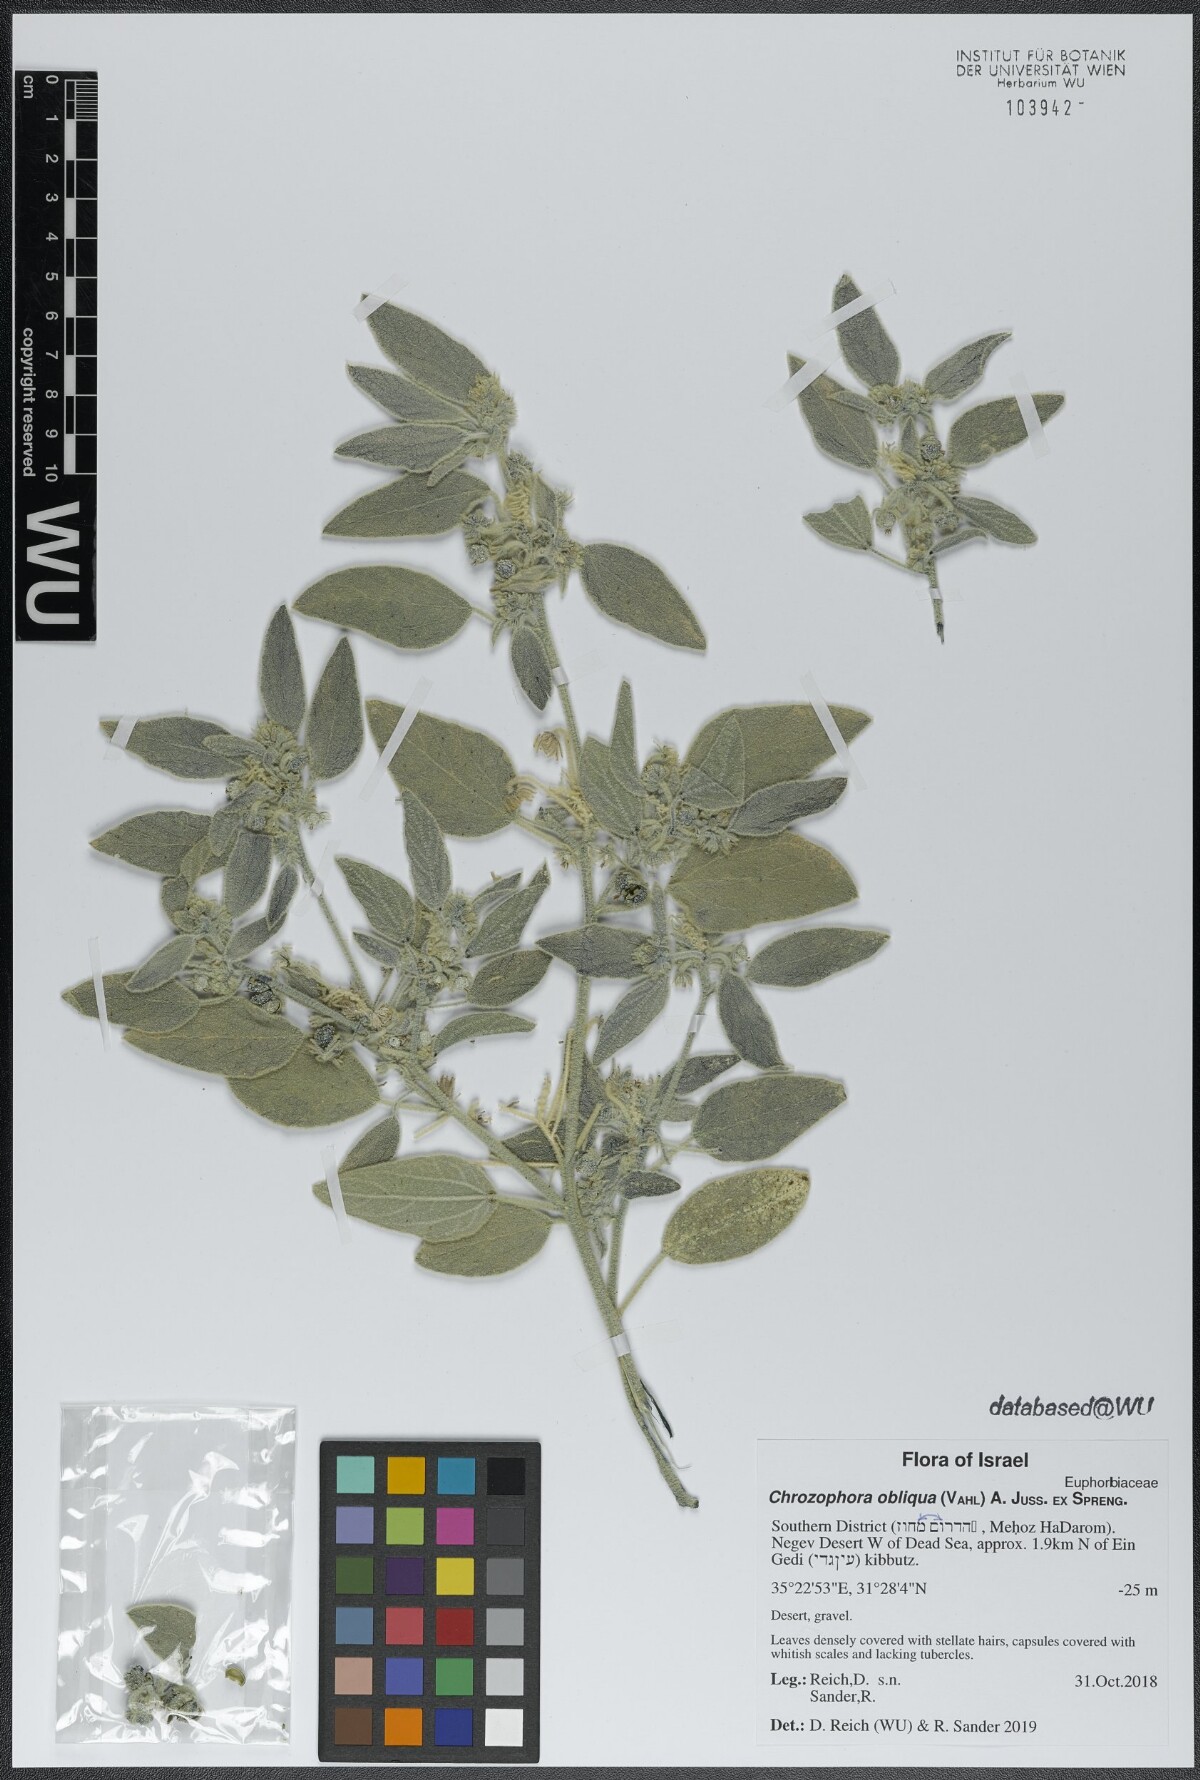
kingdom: Plantae
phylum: Tracheophyta
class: Magnoliopsida
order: Malpighiales
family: Euphorbiaceae
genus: Chrozophora
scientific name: Chrozophora tinctoria
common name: Dyer's litmus
